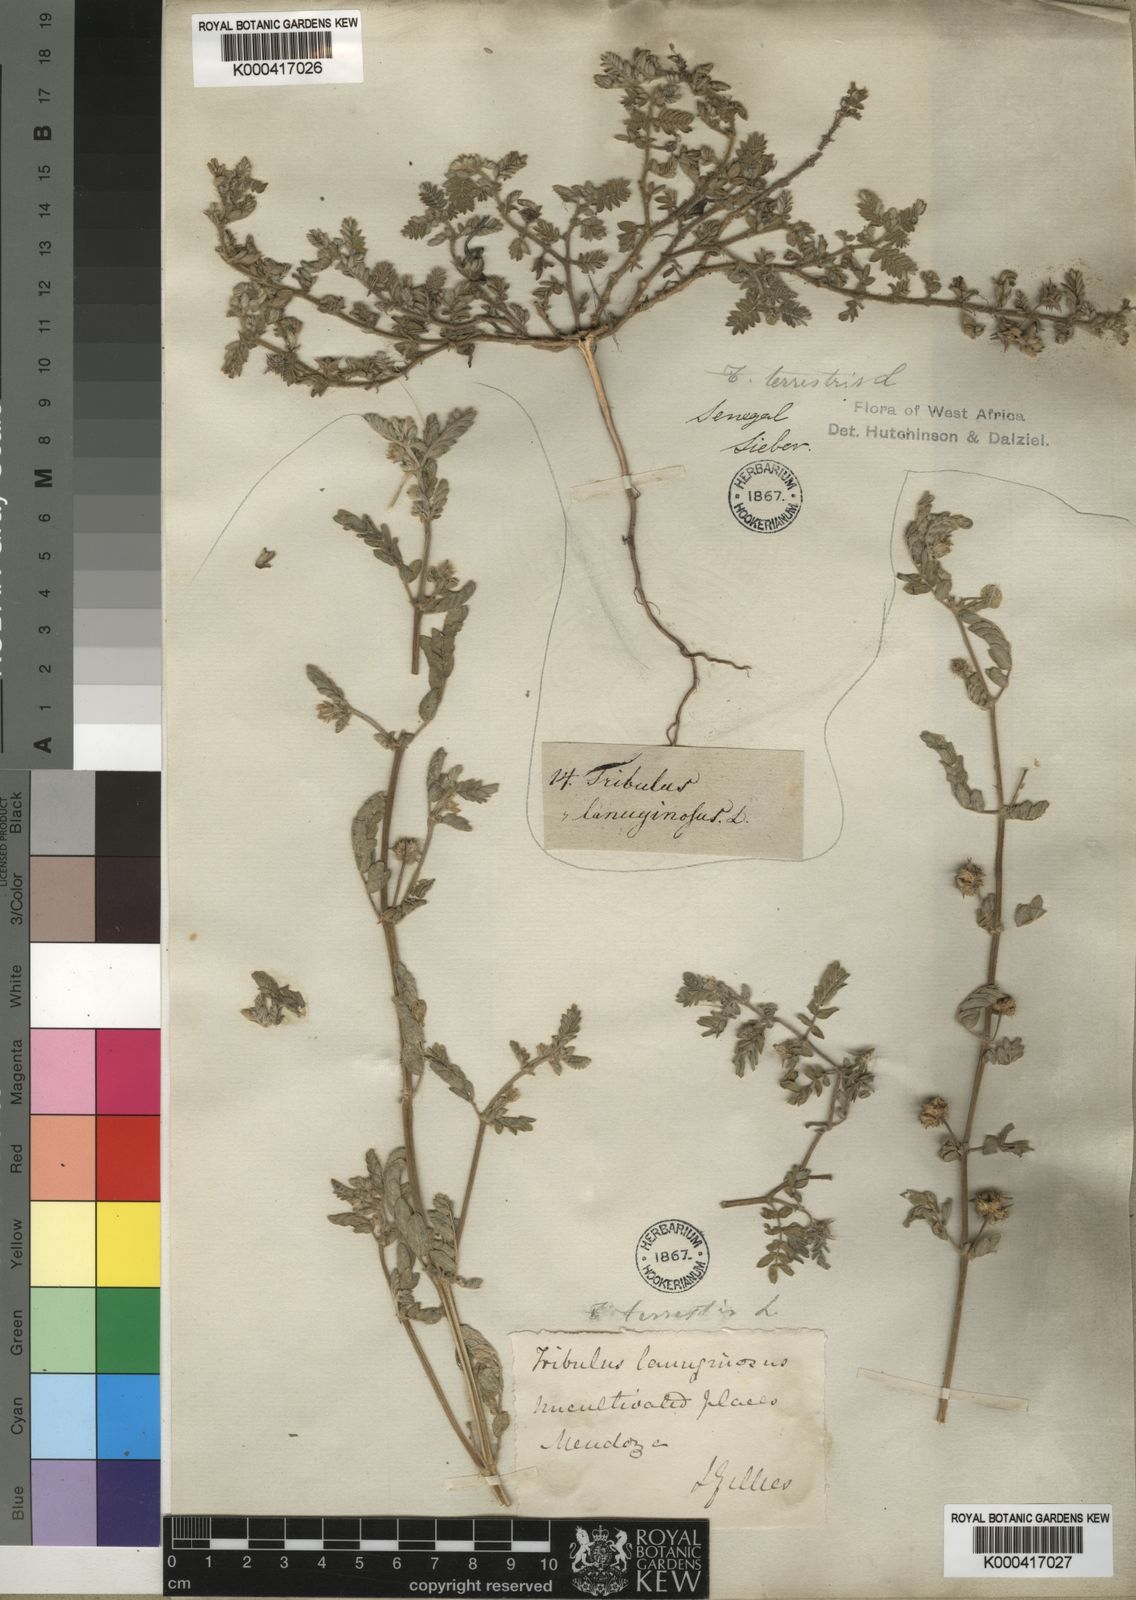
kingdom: Plantae
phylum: Tracheophyta
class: Magnoliopsida
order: Zygophyllales
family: Zygophyllaceae
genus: Tribulus
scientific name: Tribulus terrestris
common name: Puncturevine
